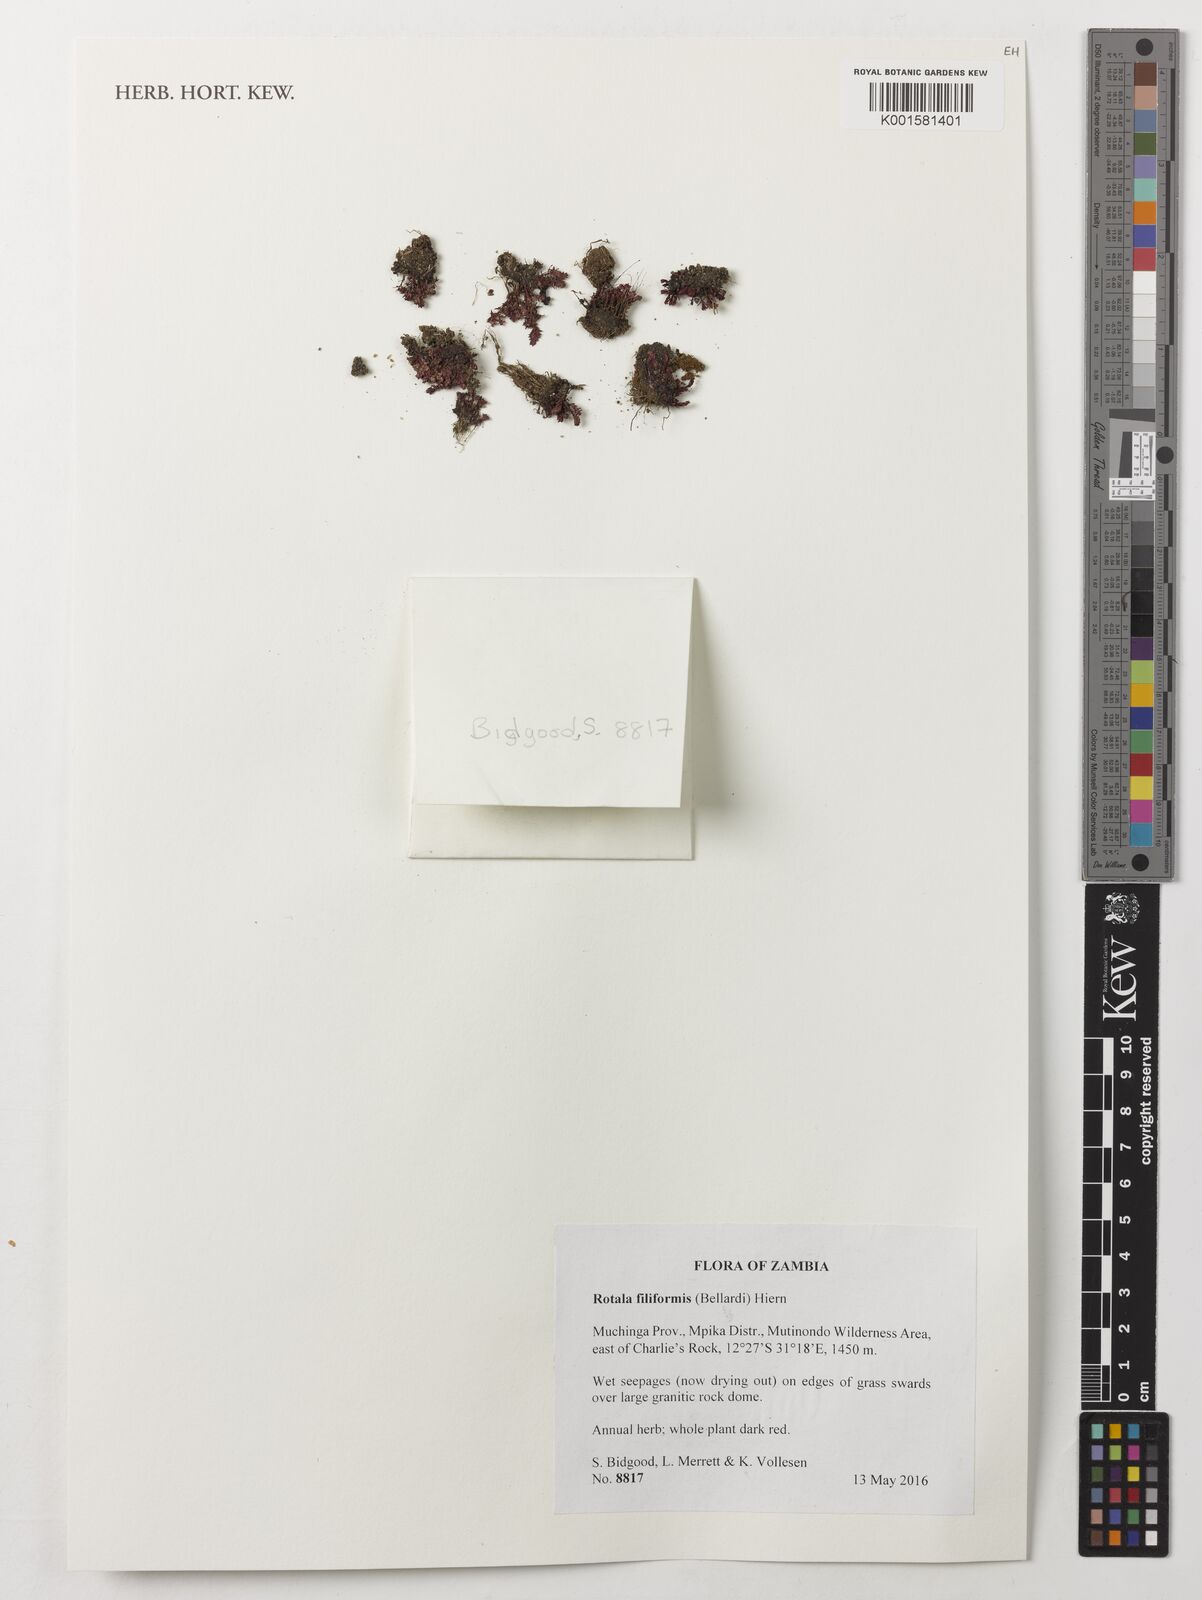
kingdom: Plantae
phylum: Tracheophyta
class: Magnoliopsida
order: Myrtales
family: Lythraceae
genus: Rotala
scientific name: Rotala filiformis
